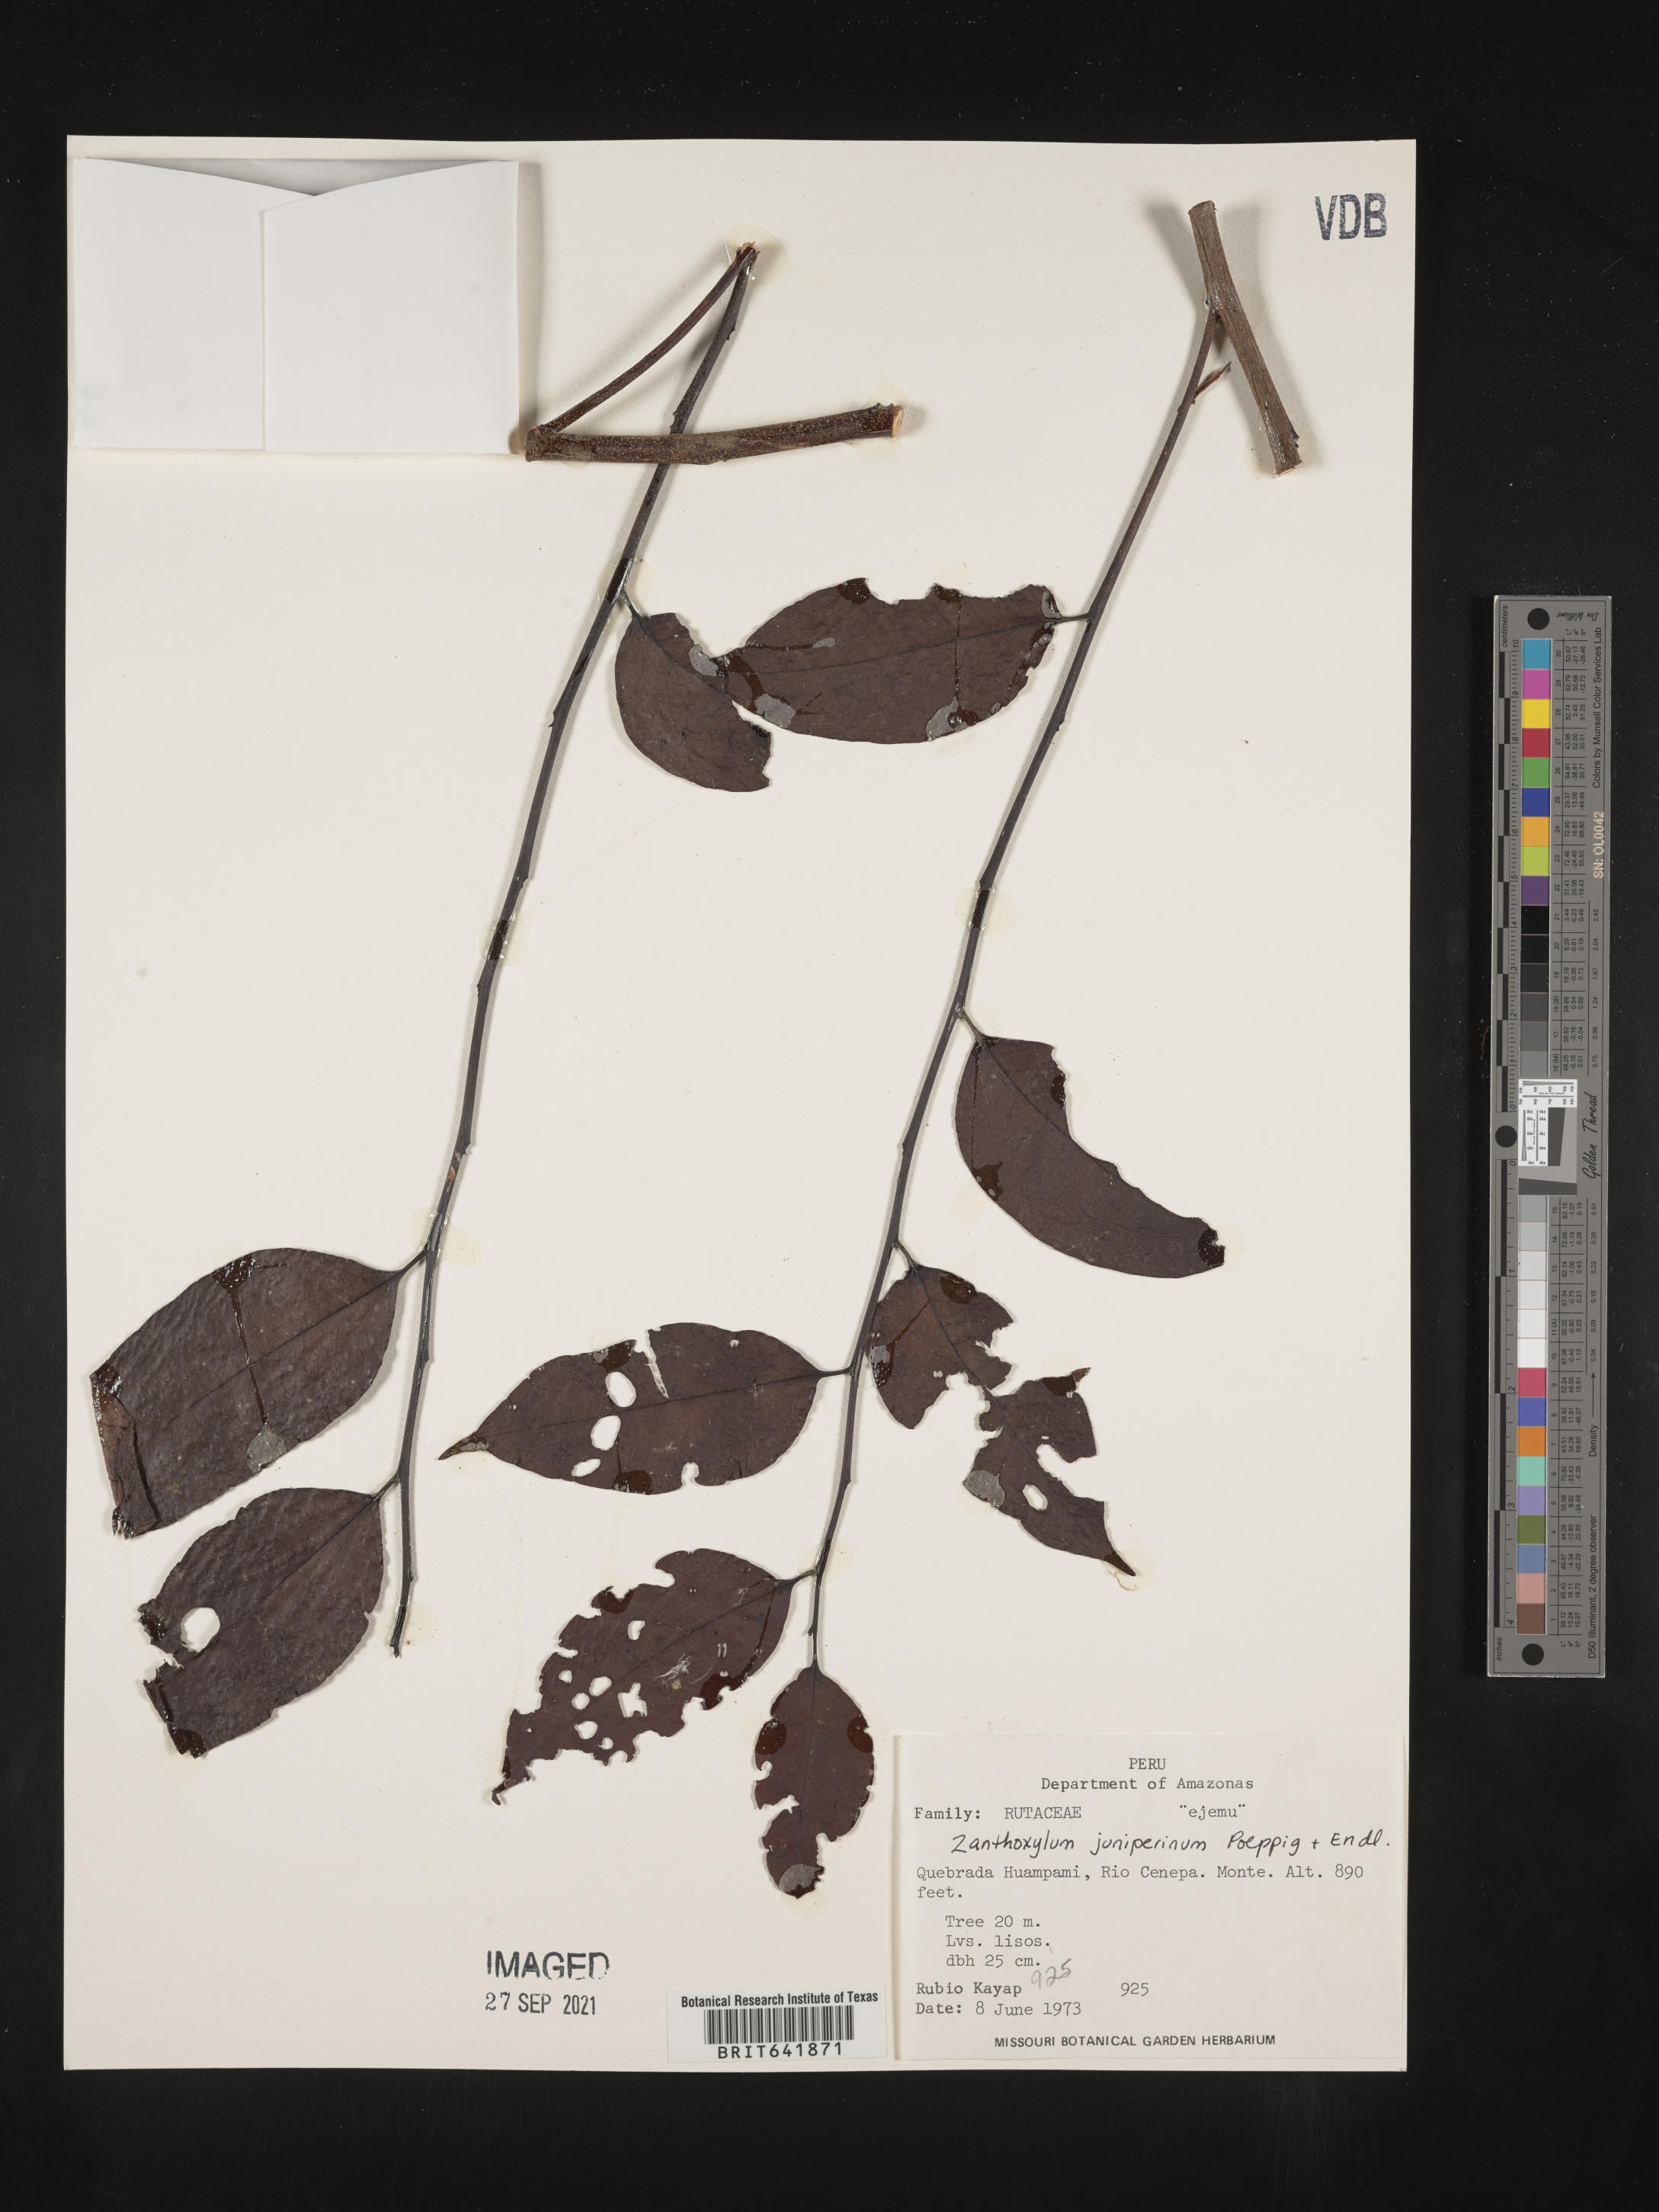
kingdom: Plantae
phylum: Tracheophyta
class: Magnoliopsida
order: Sapindales
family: Rutaceae
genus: Zanthoxylum
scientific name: Zanthoxylum
